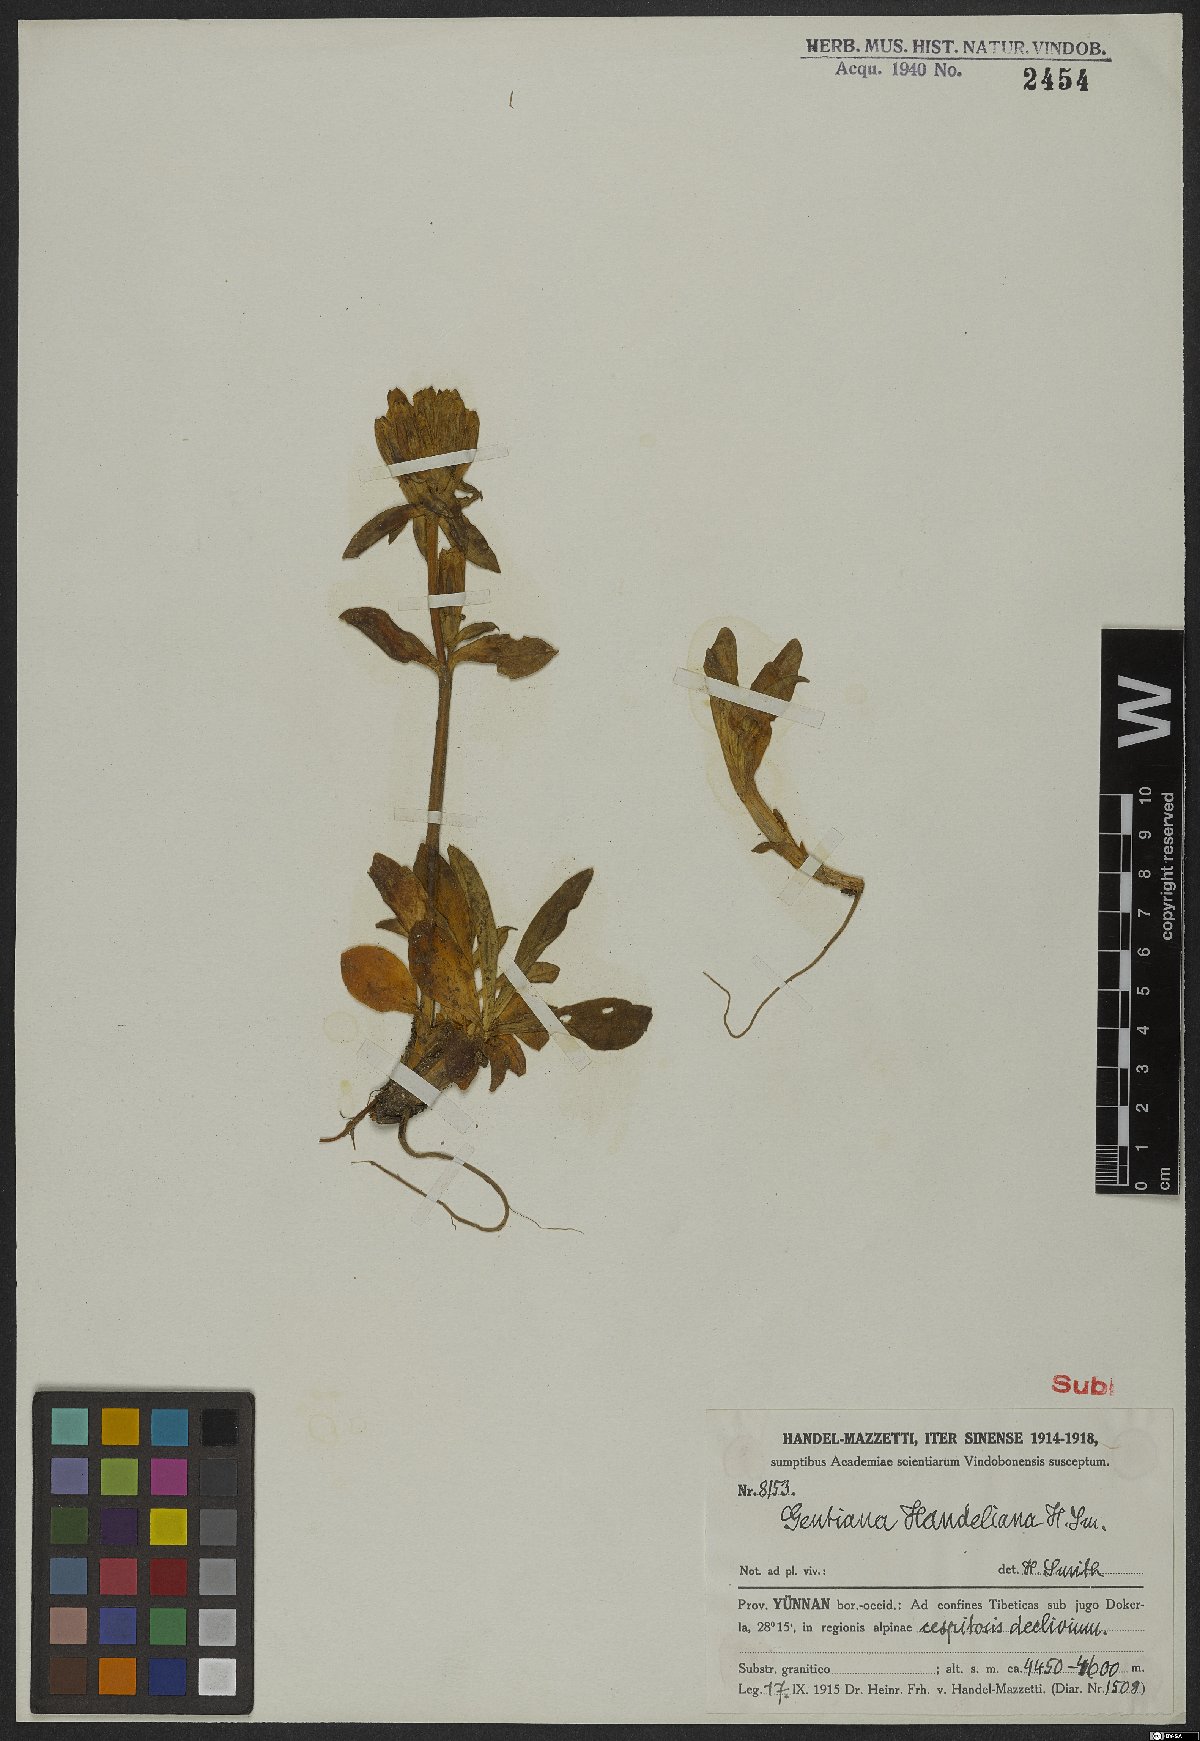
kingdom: Plantae
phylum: Tracheophyta
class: Magnoliopsida
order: Gentianales
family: Gentianaceae
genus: Gentiana
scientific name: Gentiana handeliana
